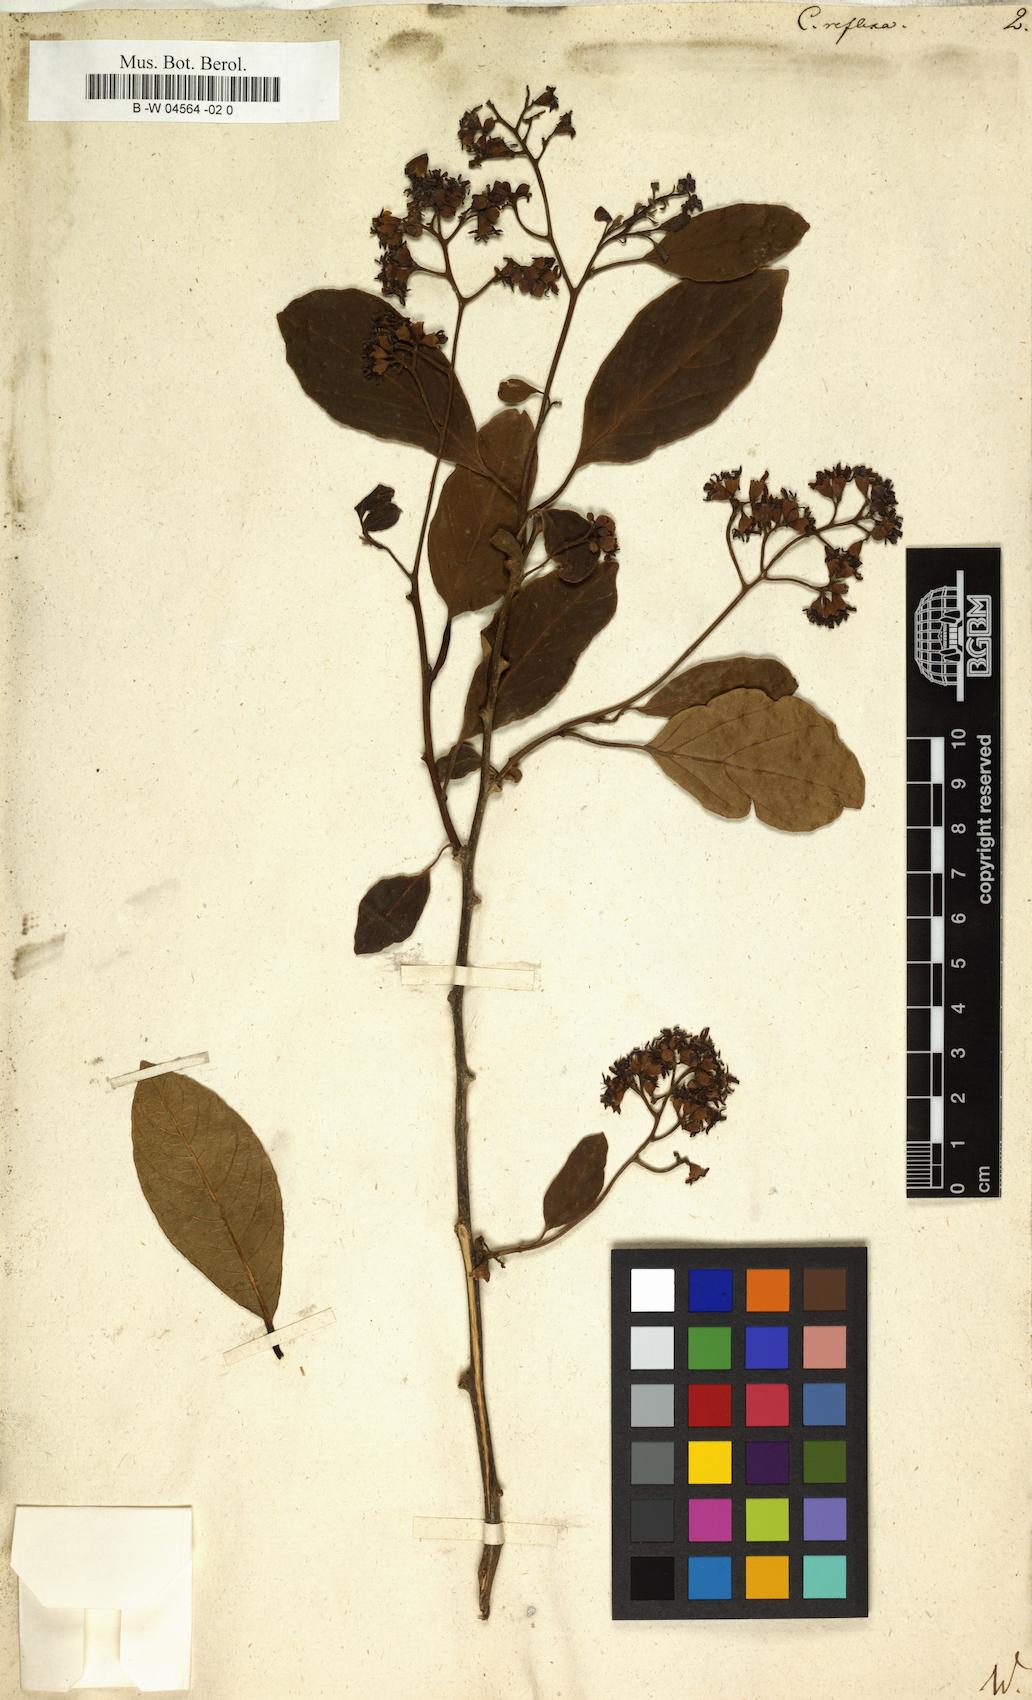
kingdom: Plantae
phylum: Tracheophyta
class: Magnoliopsida
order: Boraginales
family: Cordiaceae
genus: Cordia
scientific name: Cordia reflexa
